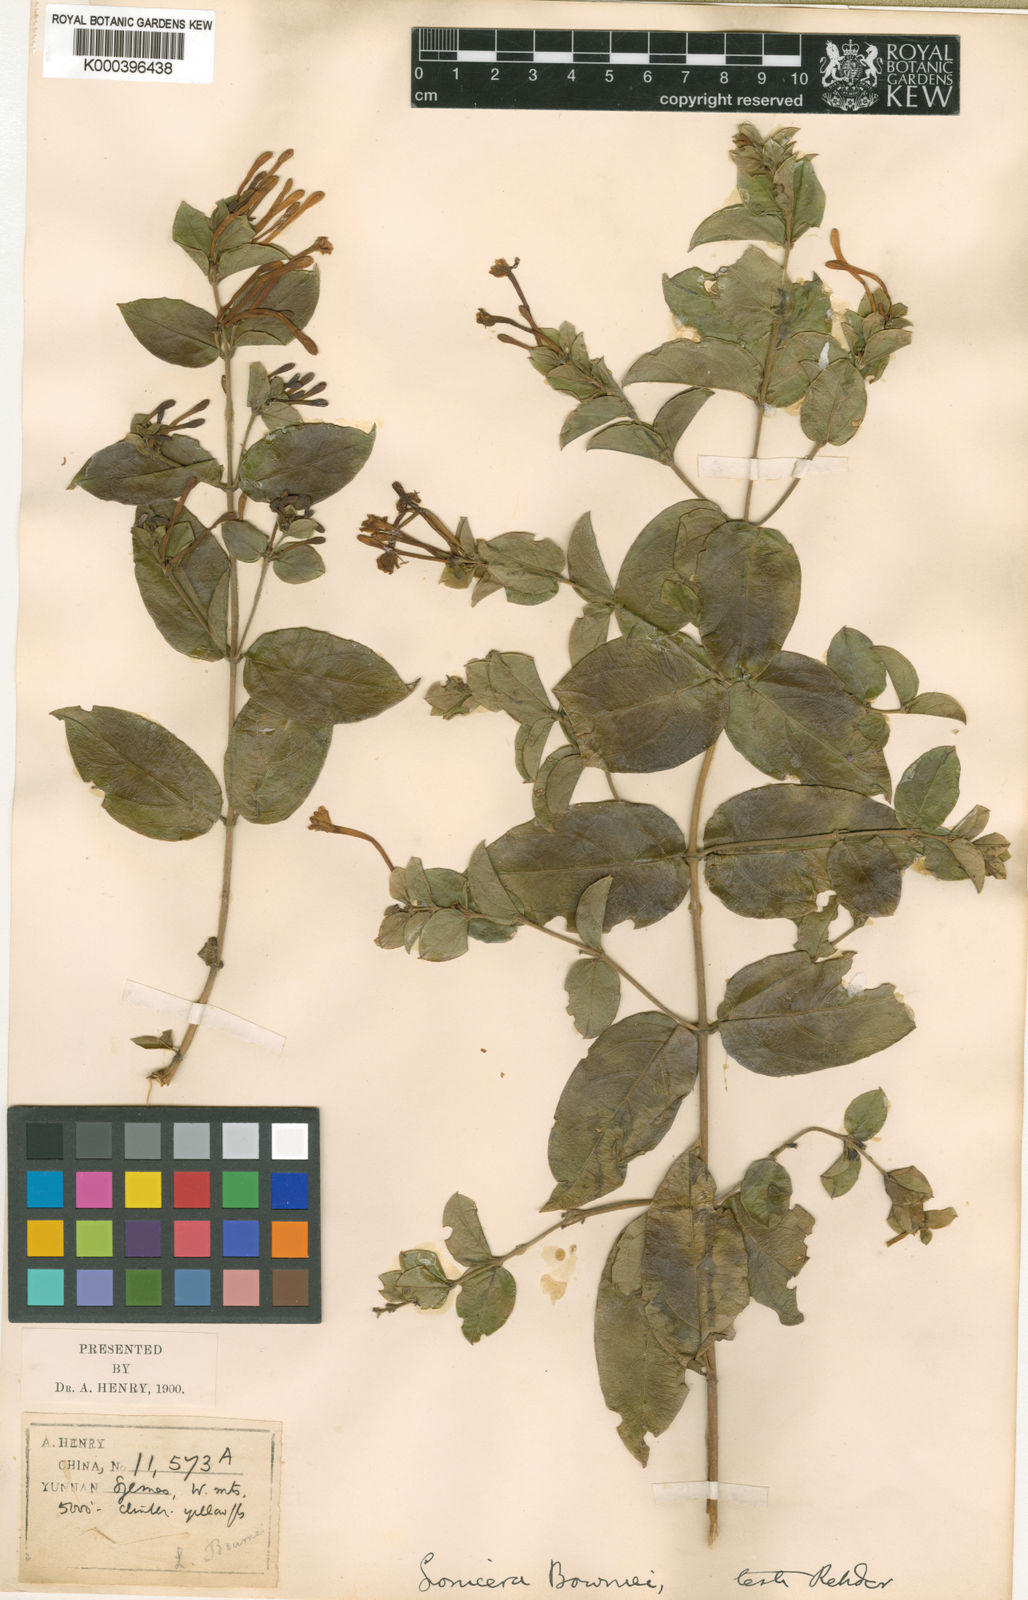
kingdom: Plantae
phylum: Tracheophyta
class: Magnoliopsida
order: Dipsacales
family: Caprifoliaceae
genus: Lonicera
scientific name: Lonicera bournei
